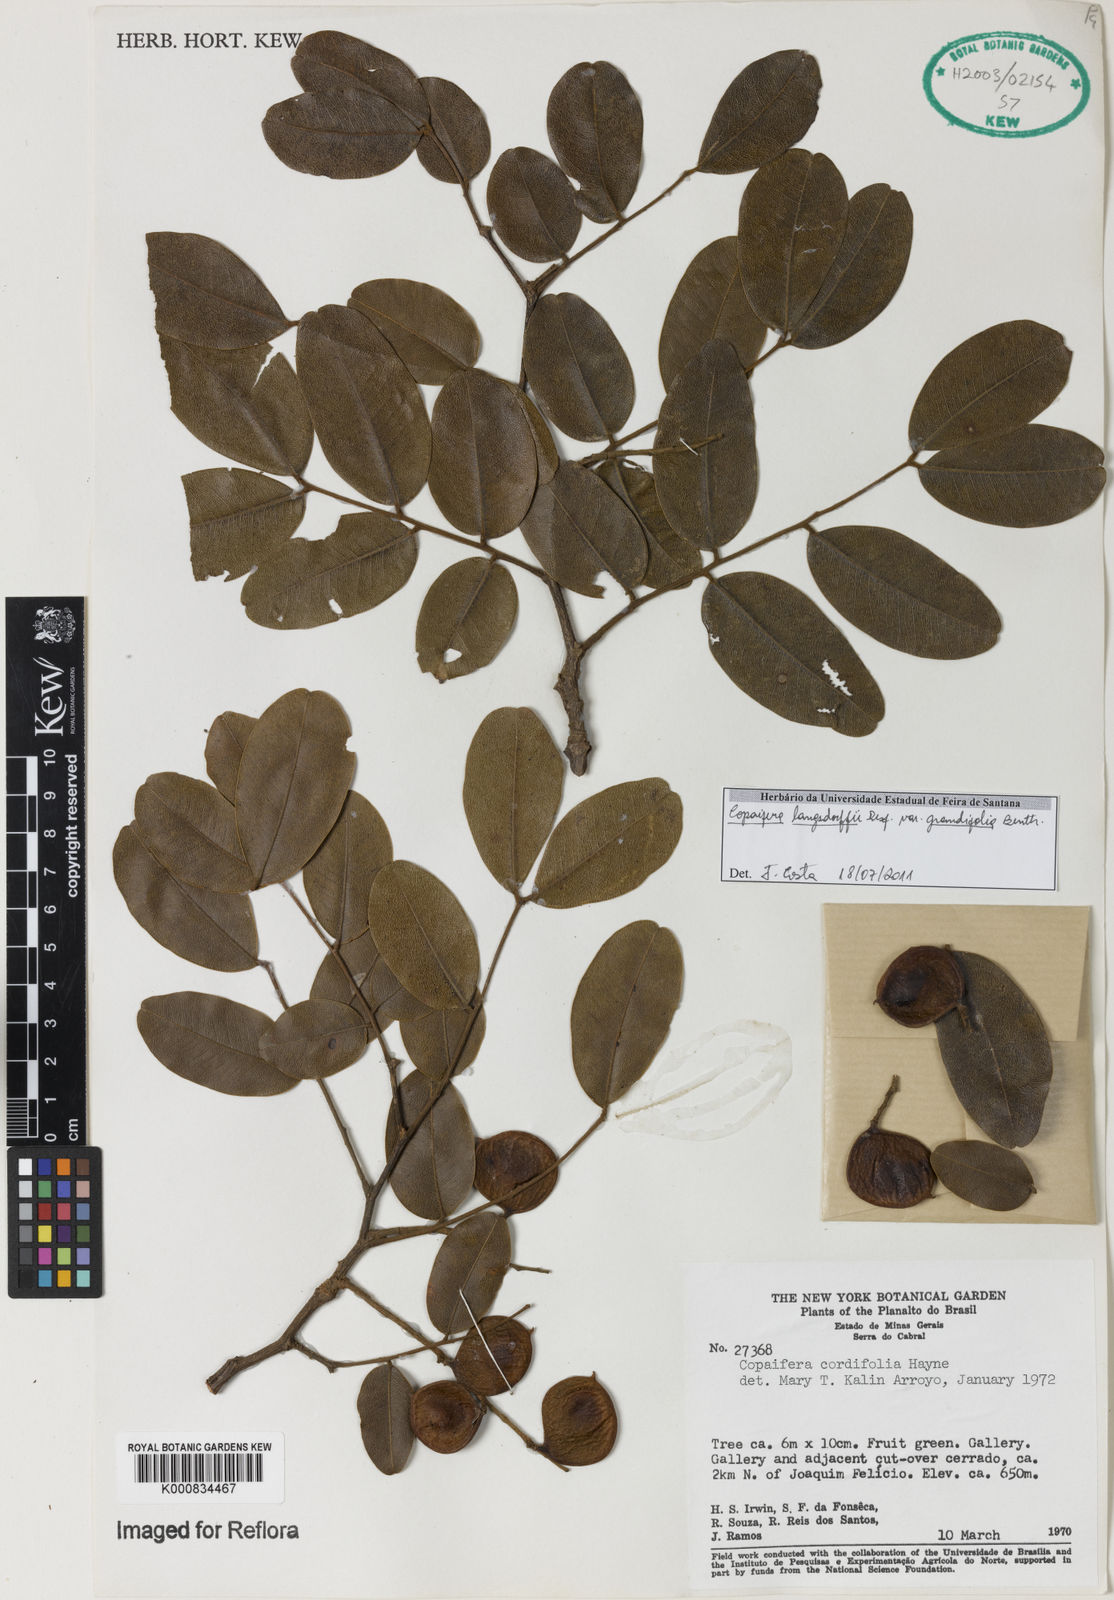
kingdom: Plantae
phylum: Tracheophyta
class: Magnoliopsida
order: Fabales
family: Fabaceae
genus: Copaifera
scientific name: Copaifera langsdorffii
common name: Brazilian diesel tree
